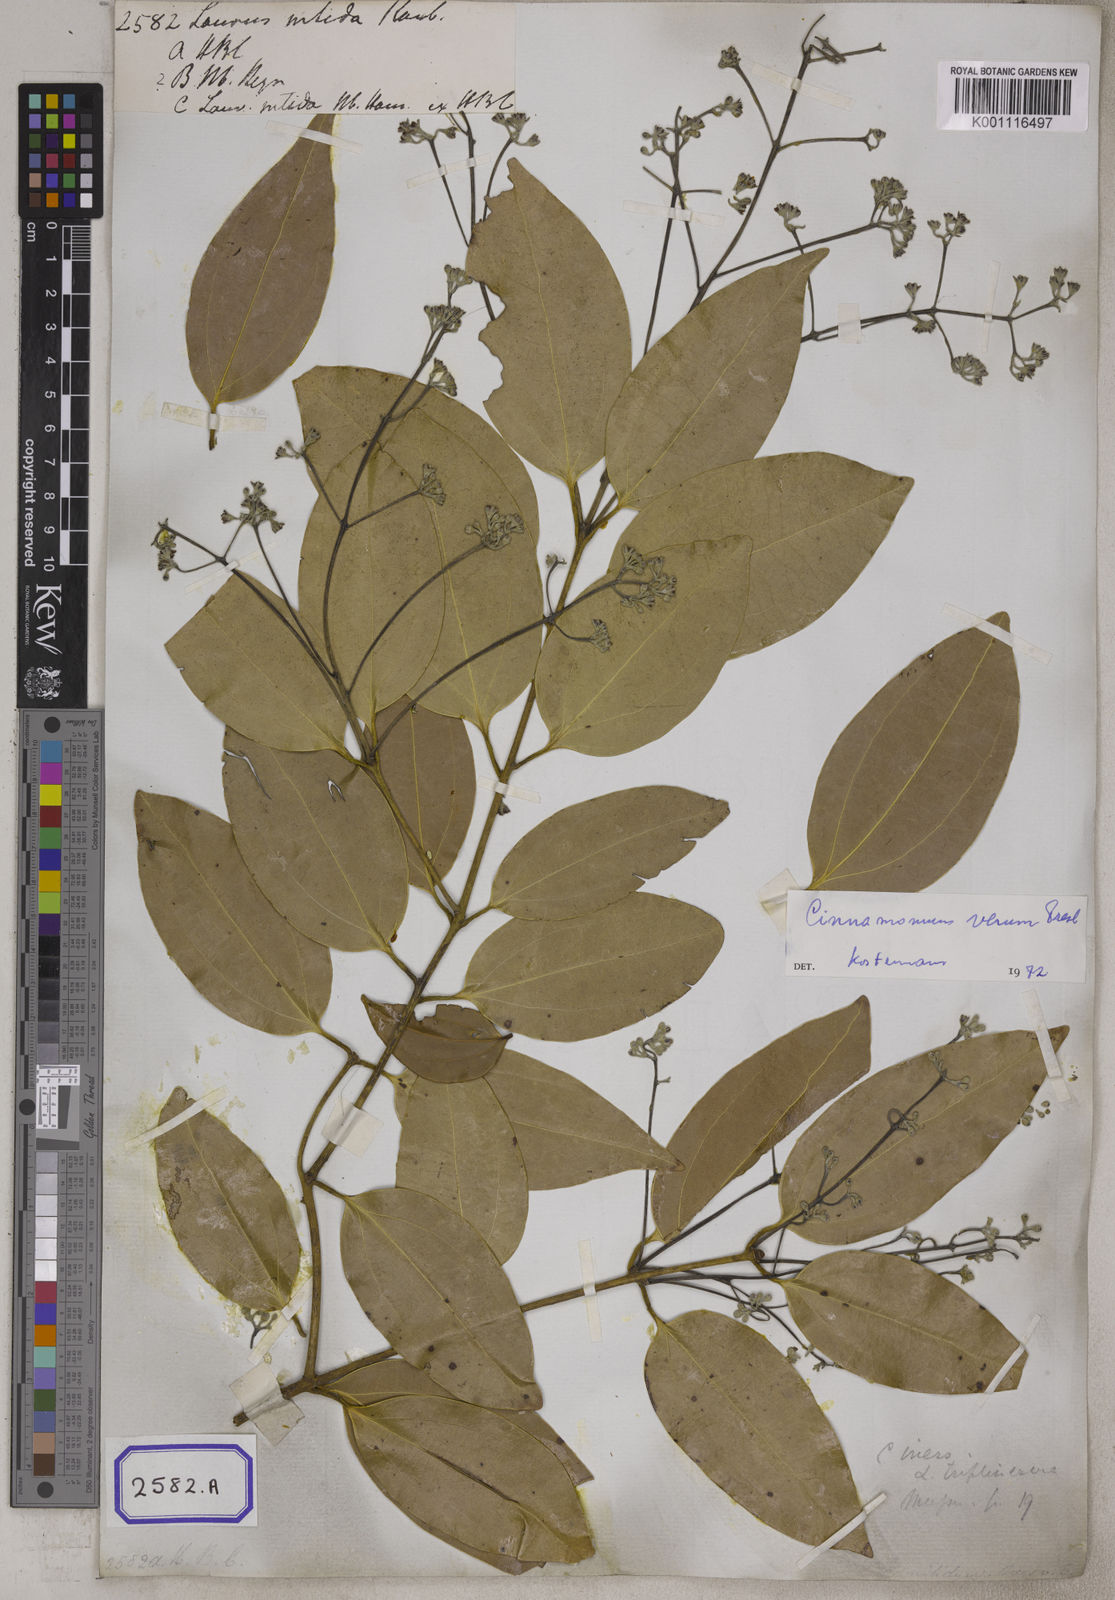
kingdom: Plantae
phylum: Tracheophyta
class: Magnoliopsida
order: Laurales
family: Lauraceae
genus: Cinnamomum
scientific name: Cinnamomum burmanni
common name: Padang cassia
